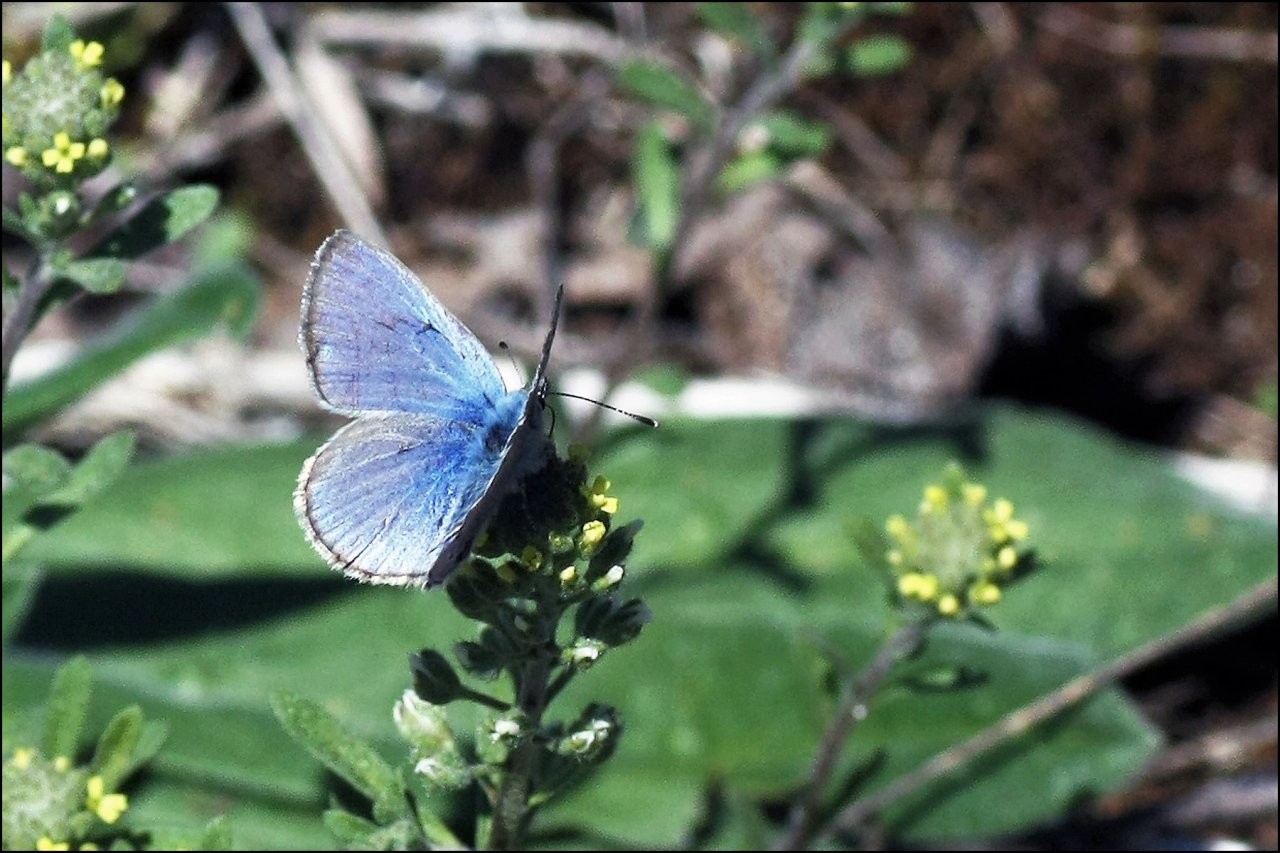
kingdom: Animalia
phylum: Arthropoda
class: Insecta
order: Lepidoptera
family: Lycaenidae
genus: Glaucopsyche
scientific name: Glaucopsyche lygdamus
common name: Silvery Blue
